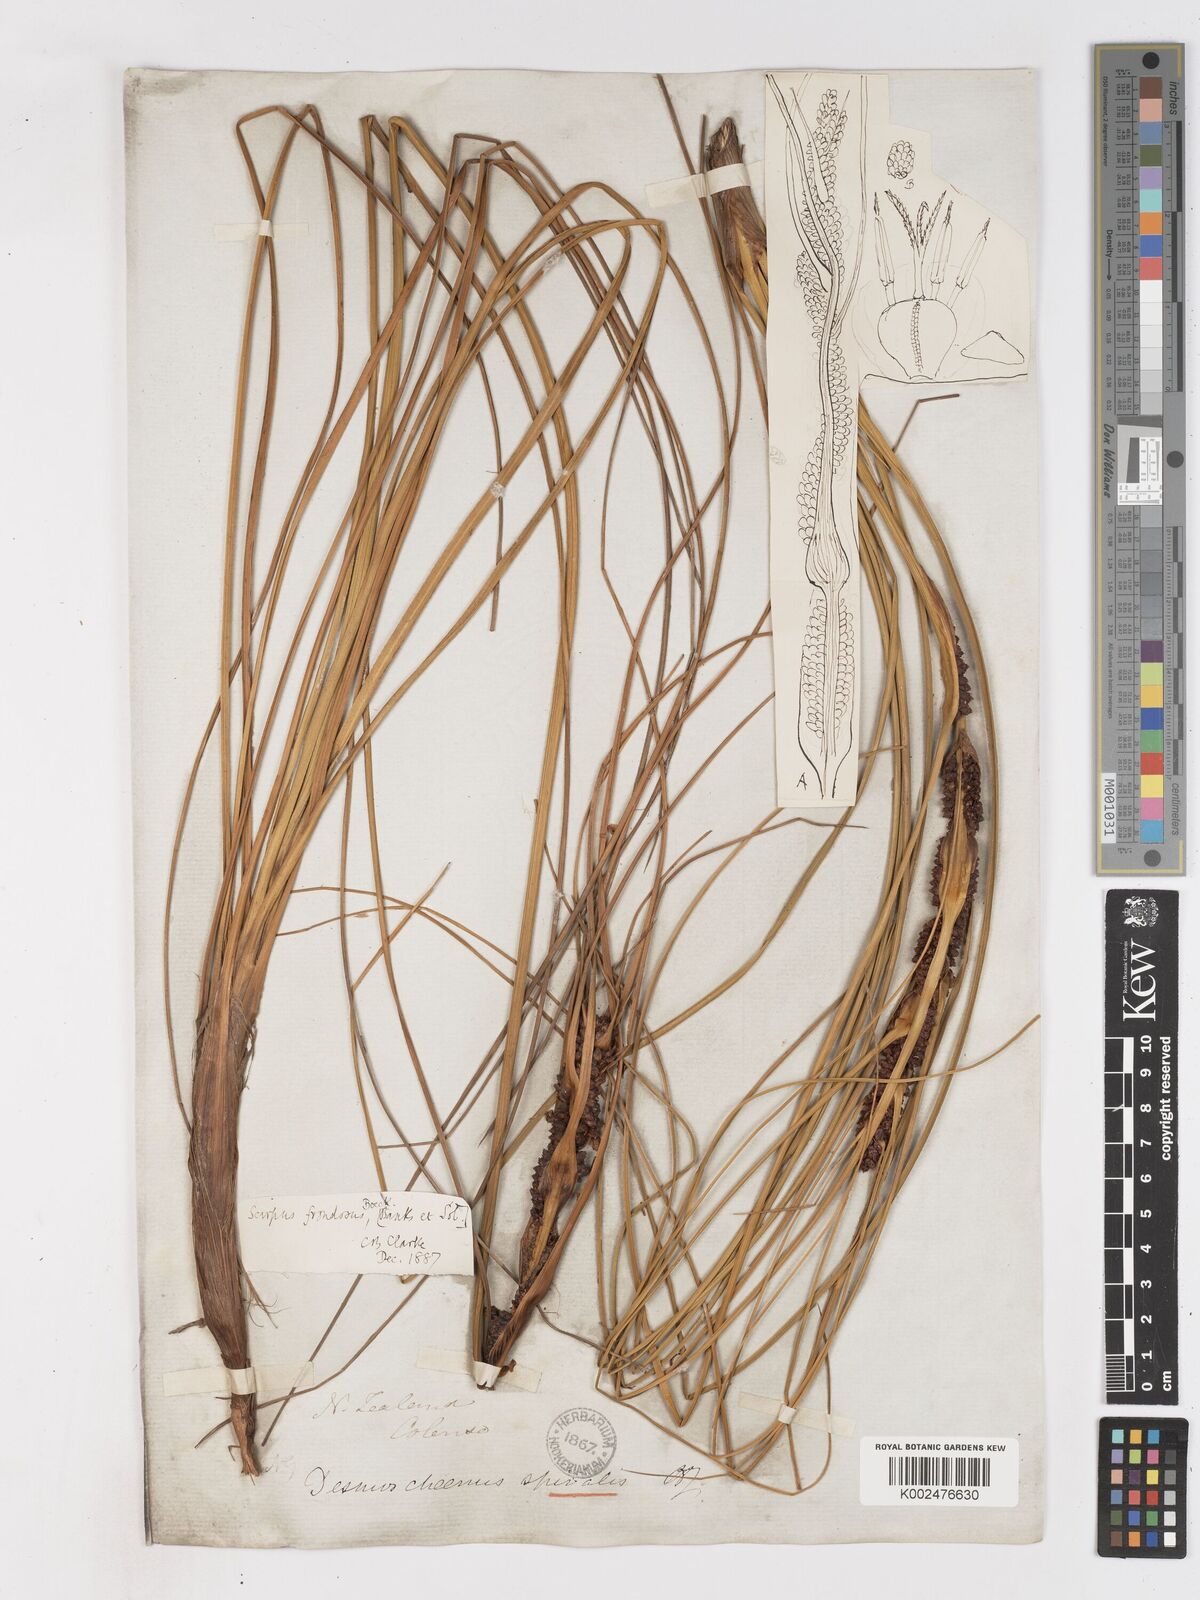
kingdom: Plantae
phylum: Tracheophyta
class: Liliopsida
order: Poales
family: Cyperaceae
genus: Ficinia
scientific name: Ficinia
